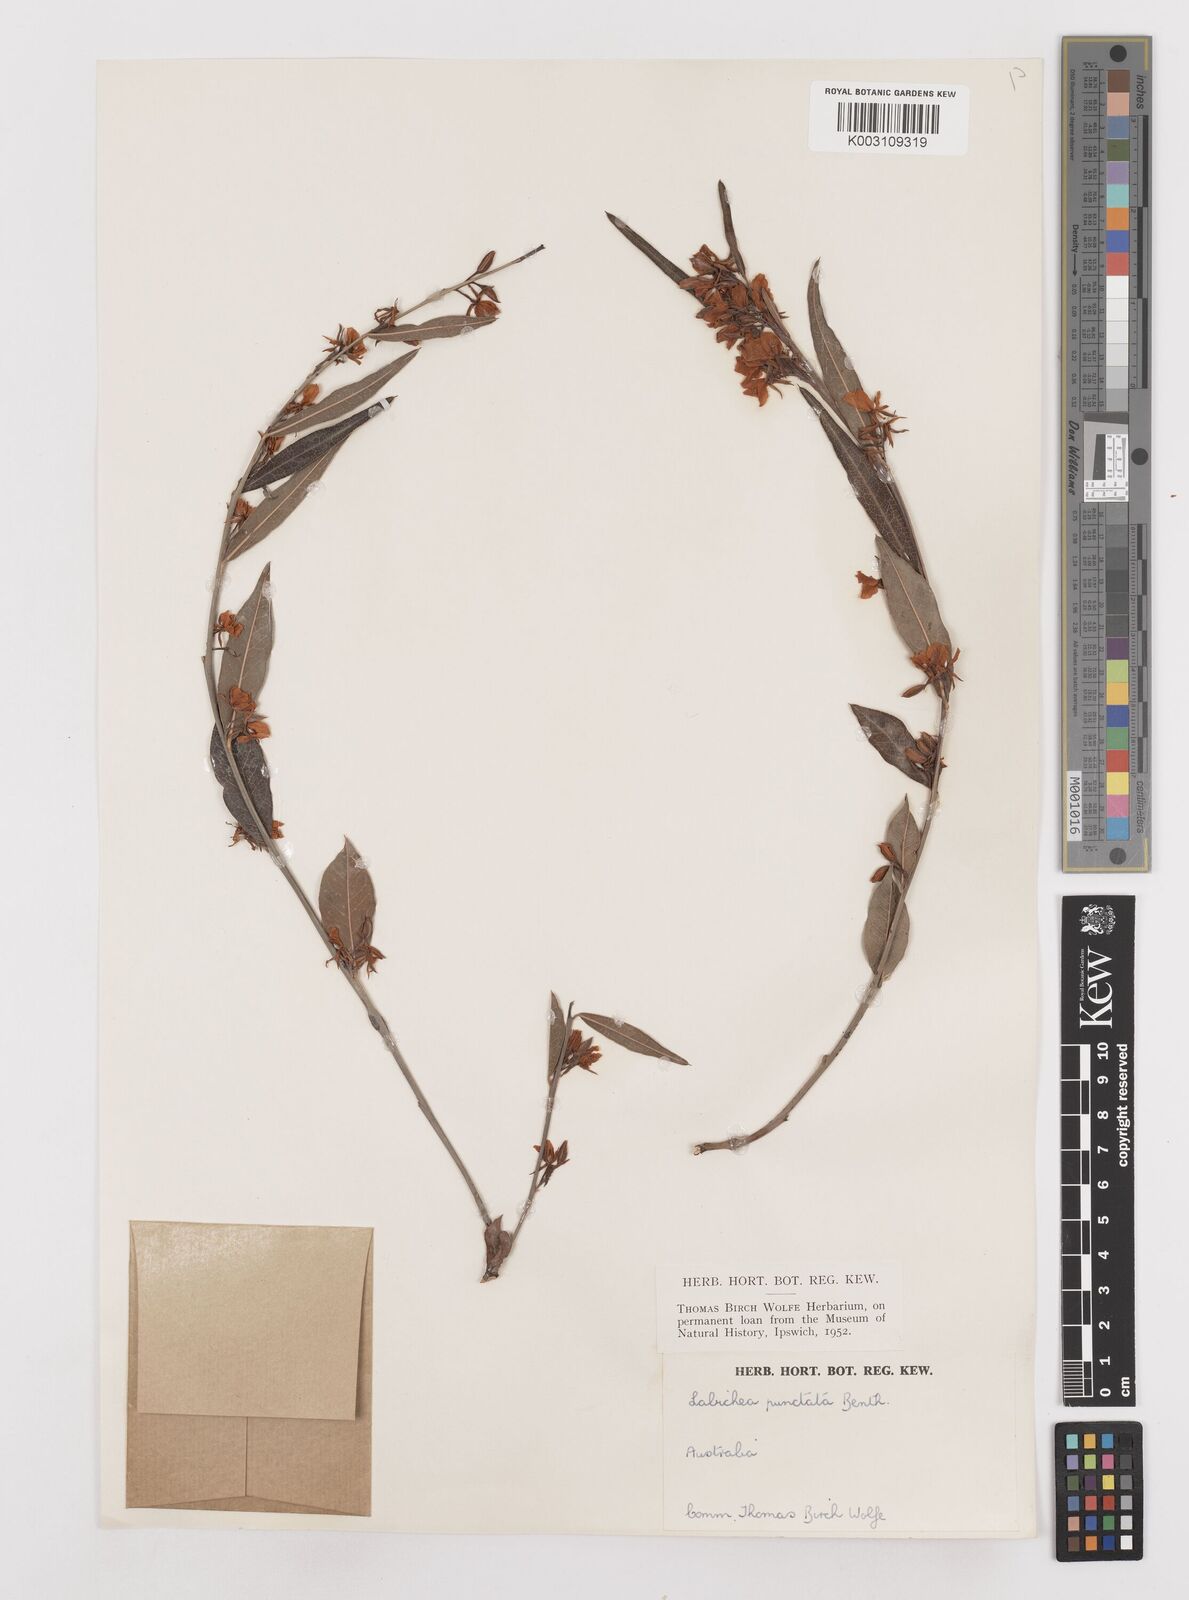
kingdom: Plantae
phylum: Tracheophyta
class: Magnoliopsida
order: Fabales
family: Fabaceae
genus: Labichea
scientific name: Labichea punctata
